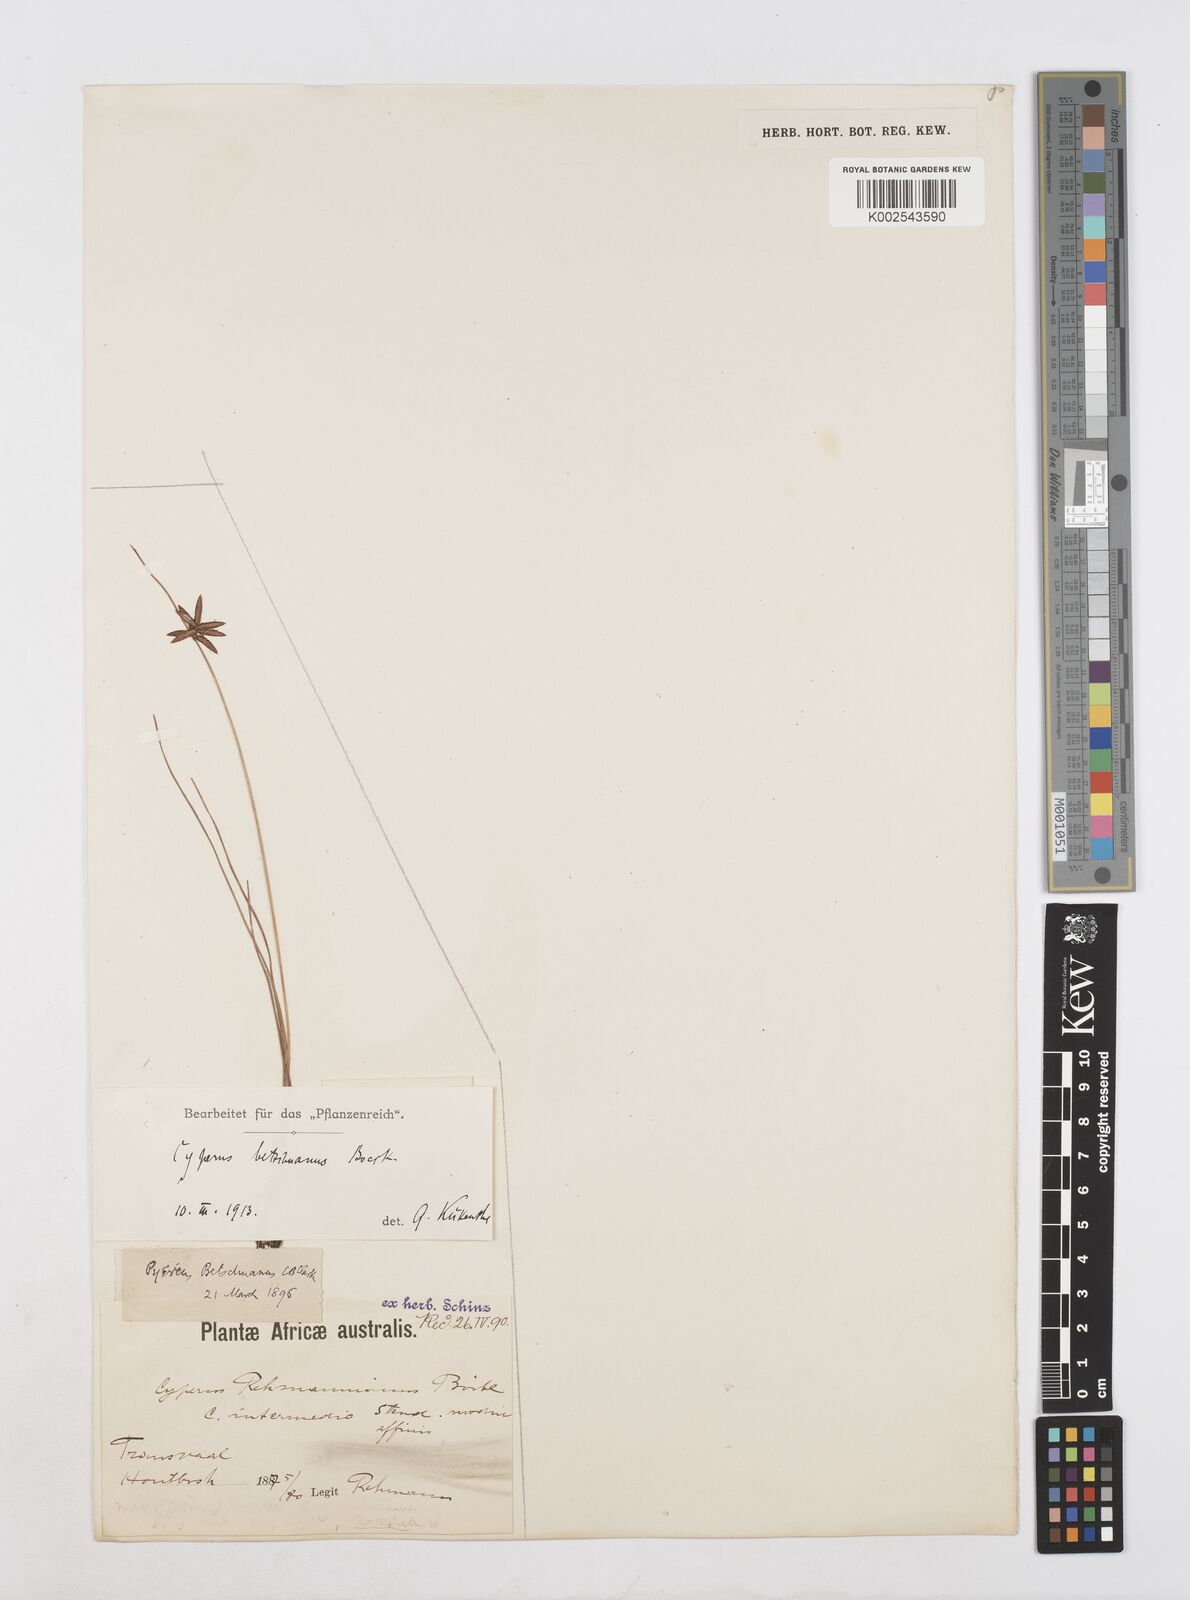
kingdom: Plantae
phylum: Tracheophyta
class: Liliopsida
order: Poales
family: Cyperaceae
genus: Cyperus
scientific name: Cyperus aethiops
